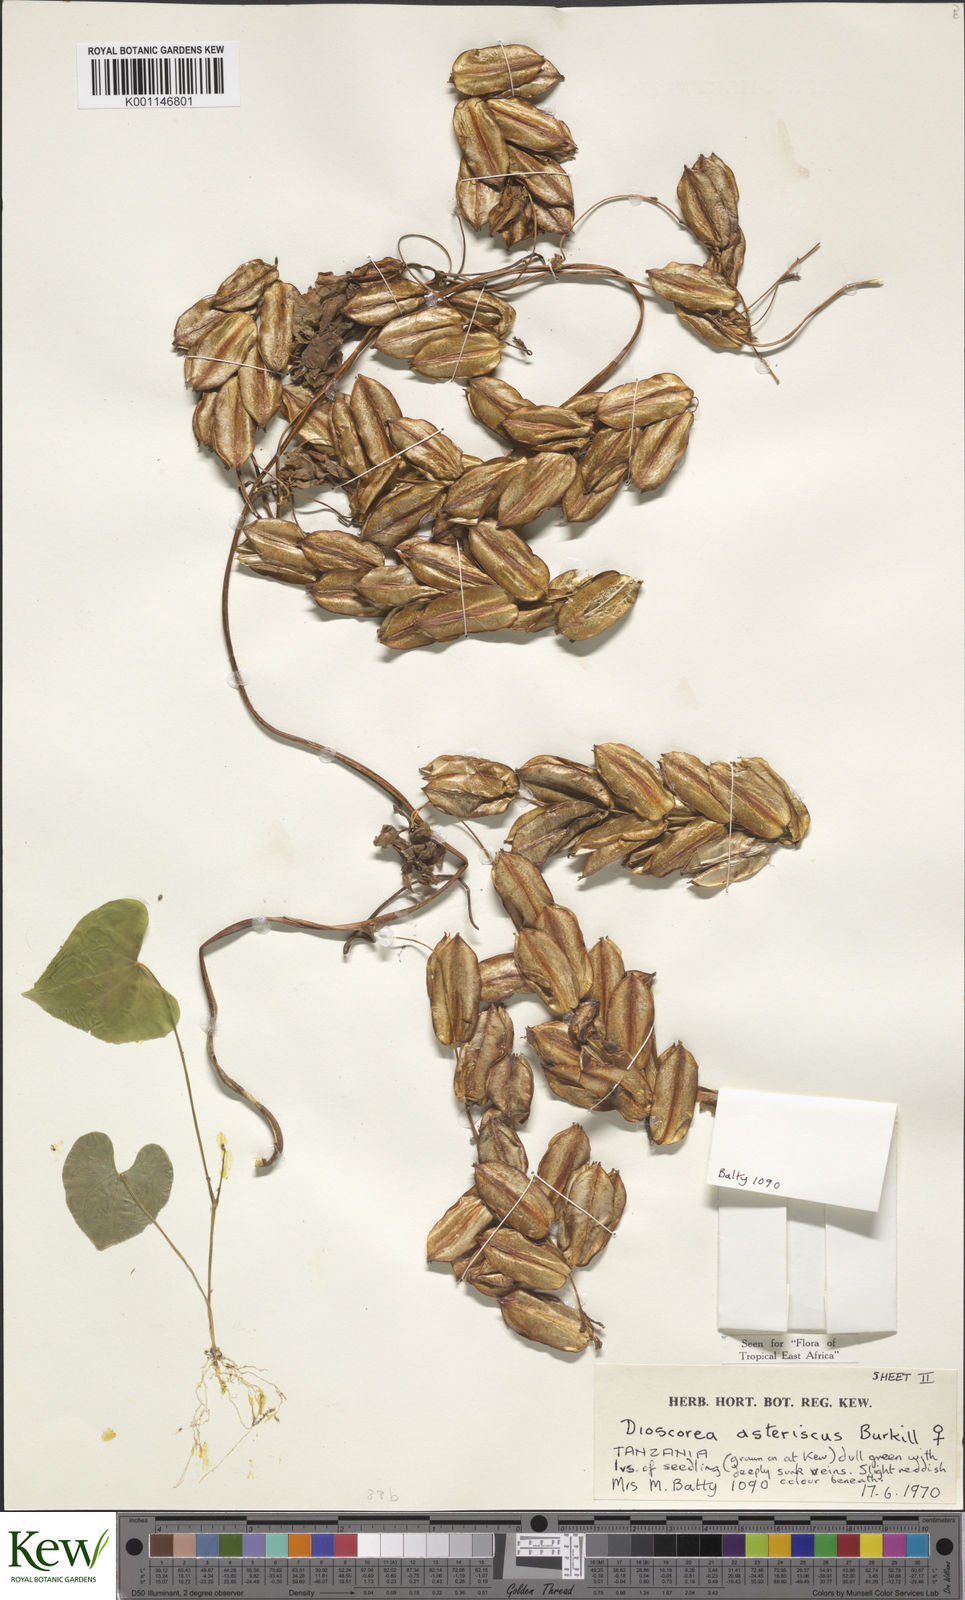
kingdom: Plantae
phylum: Tracheophyta
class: Liliopsida
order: Dioscoreales
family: Dioscoreaceae
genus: Dioscorea
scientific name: Dioscorea asteriscus
